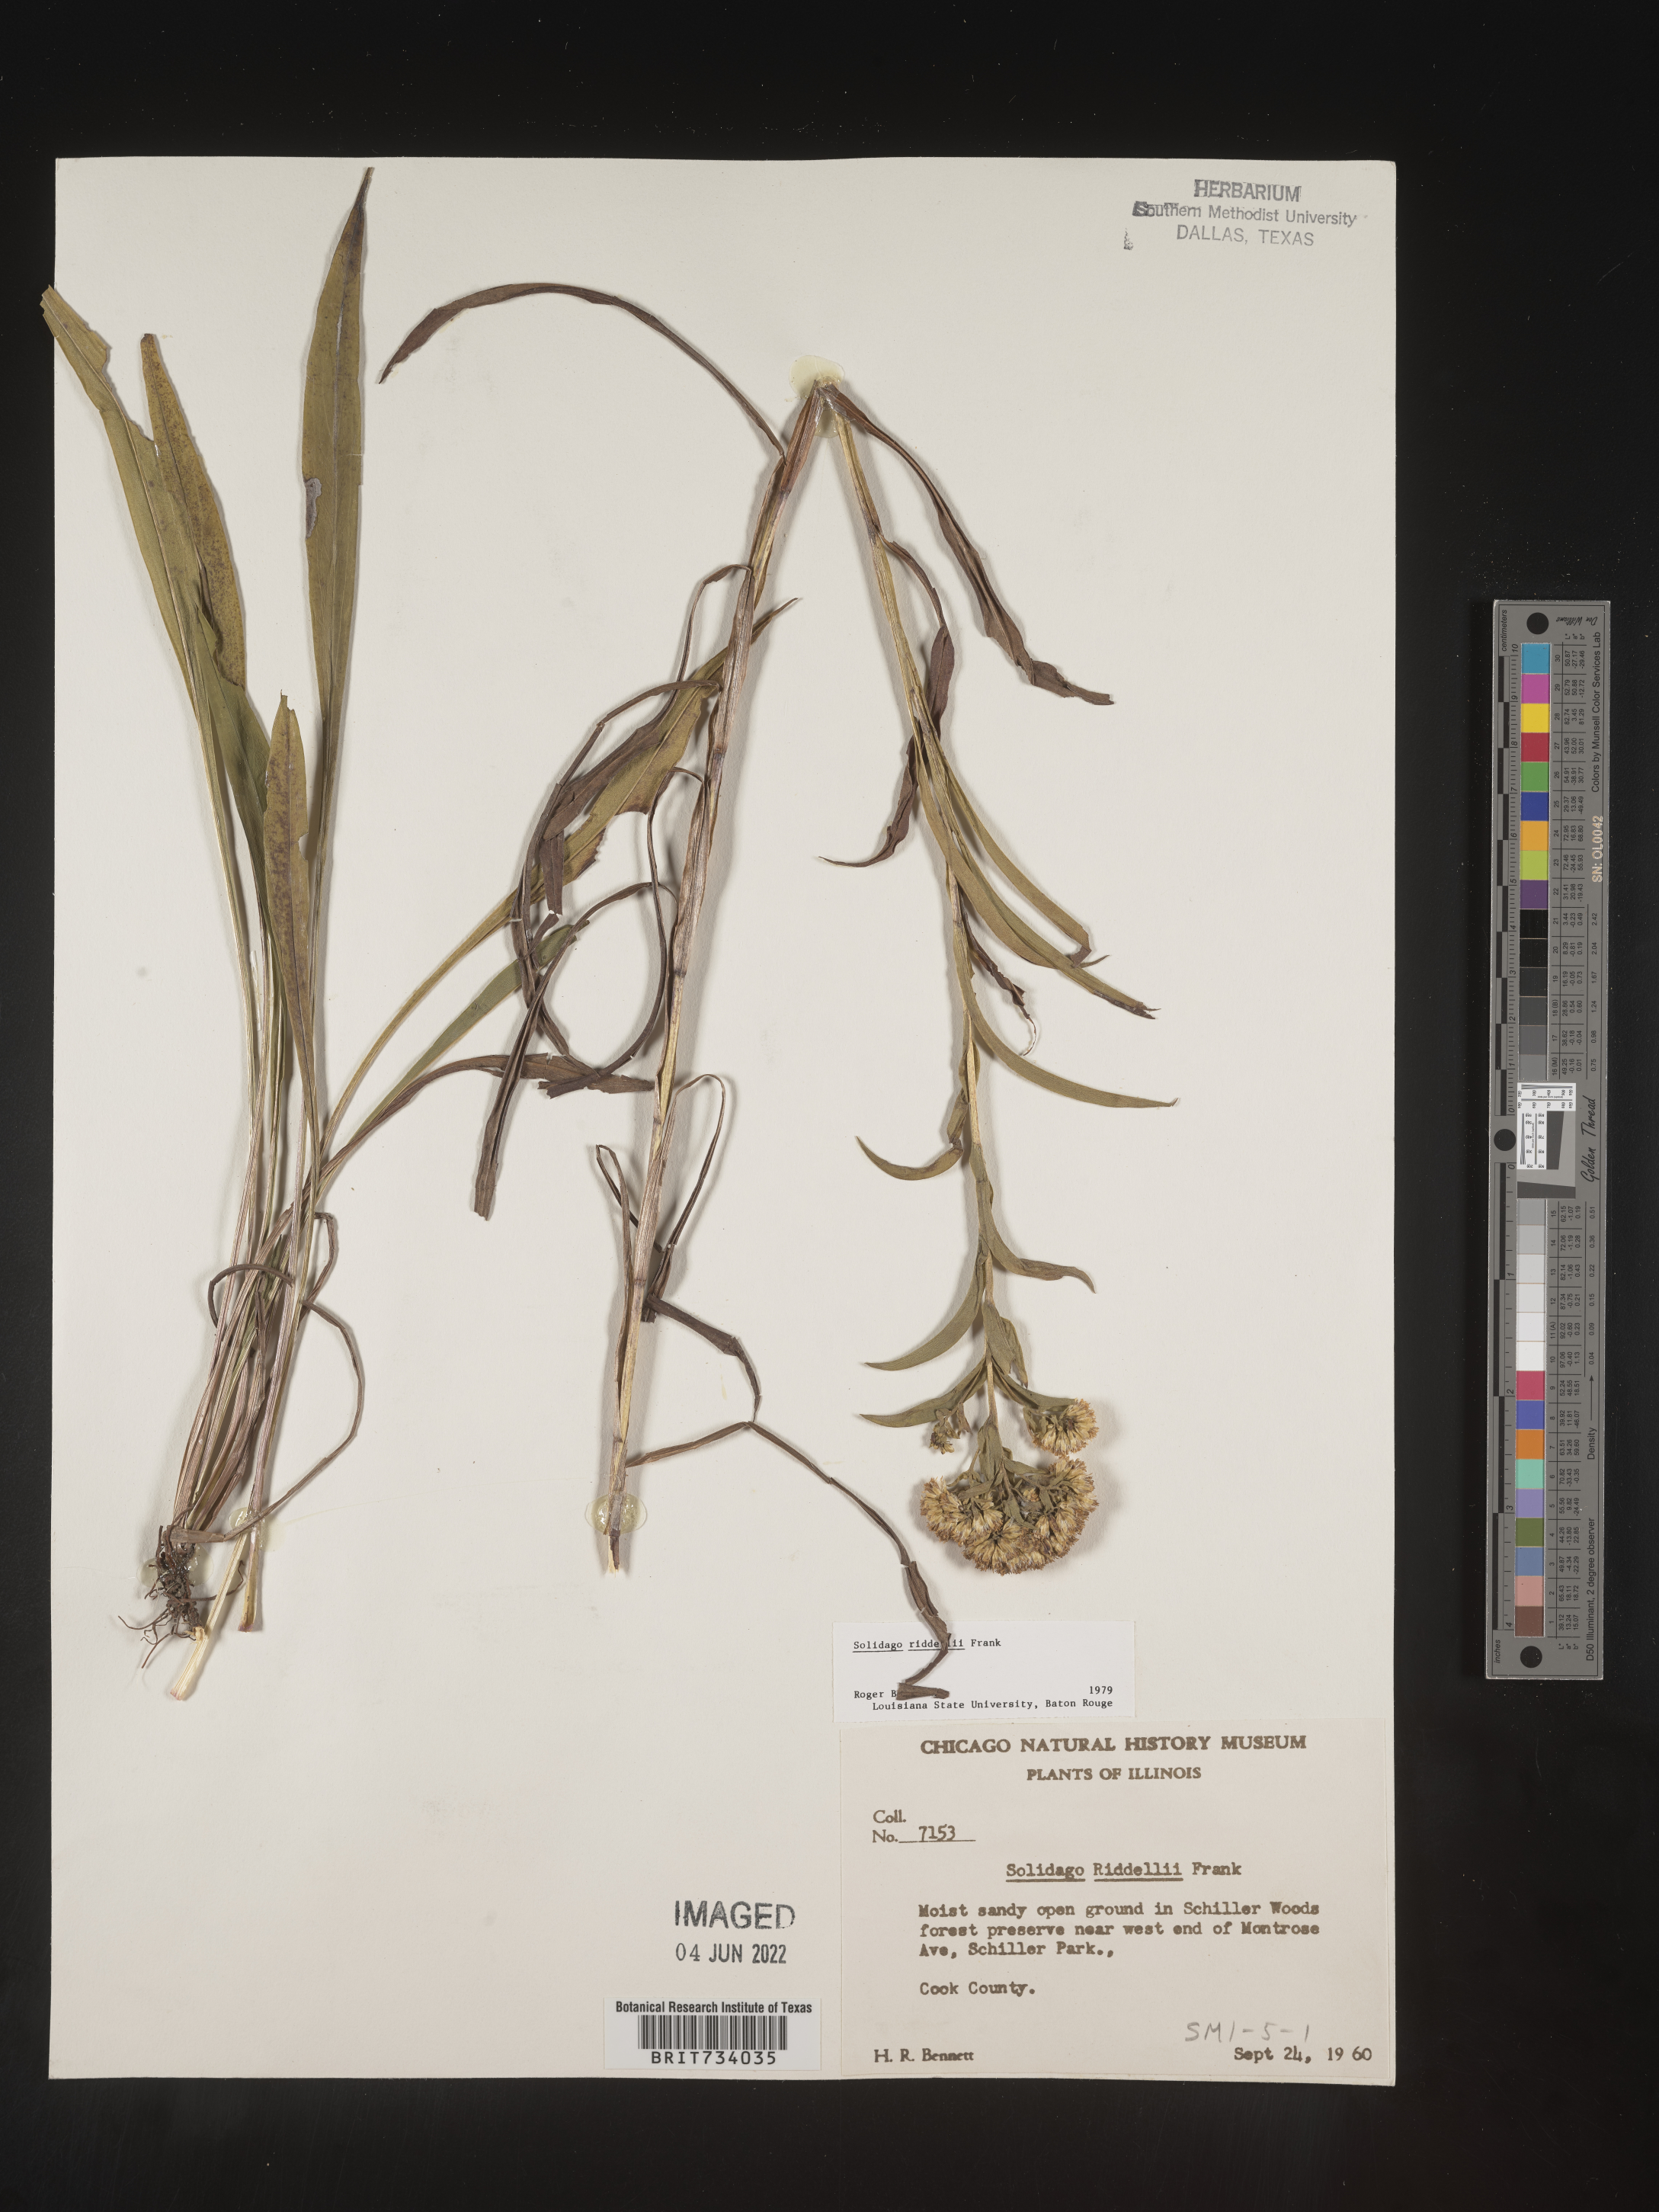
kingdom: Plantae
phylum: Tracheophyta
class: Magnoliopsida
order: Asterales
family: Asteraceae
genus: Solidago
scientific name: Solidago riddellii
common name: Riddell's goldenrod
